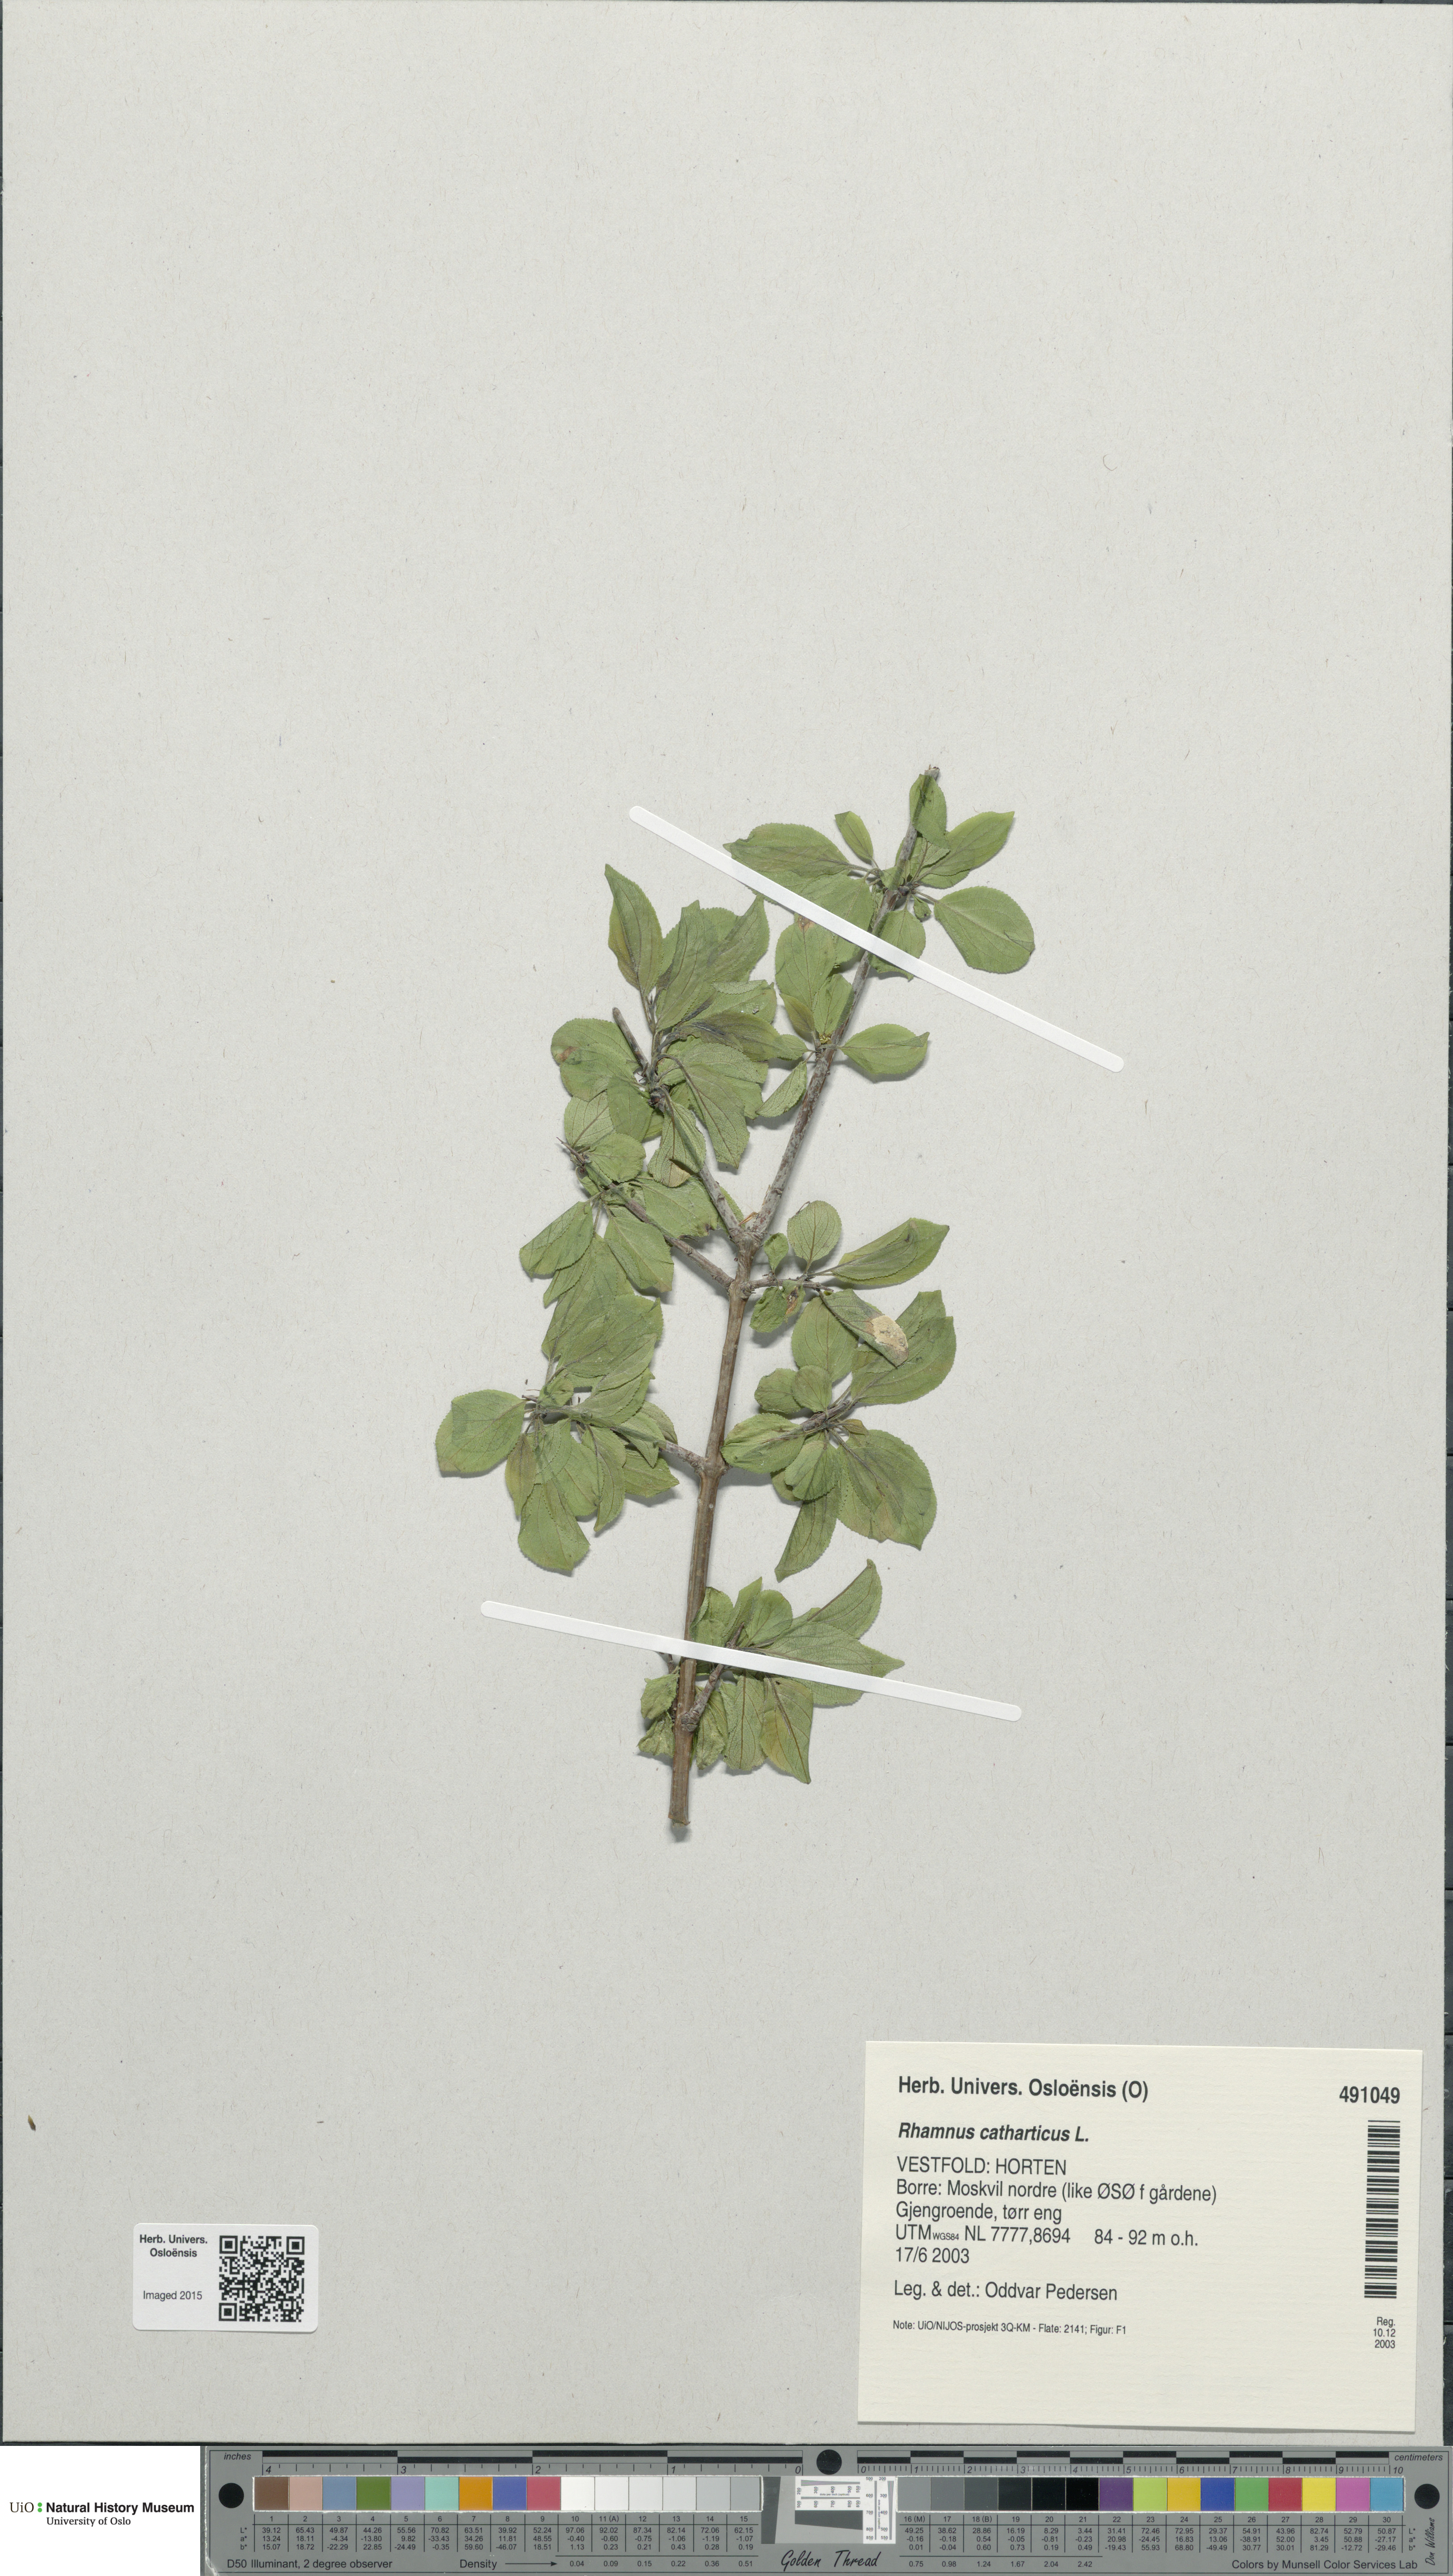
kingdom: Plantae
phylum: Tracheophyta
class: Magnoliopsida
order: Rosales
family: Rhamnaceae
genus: Rhamnus
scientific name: Rhamnus cathartica
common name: Common buckthorn
